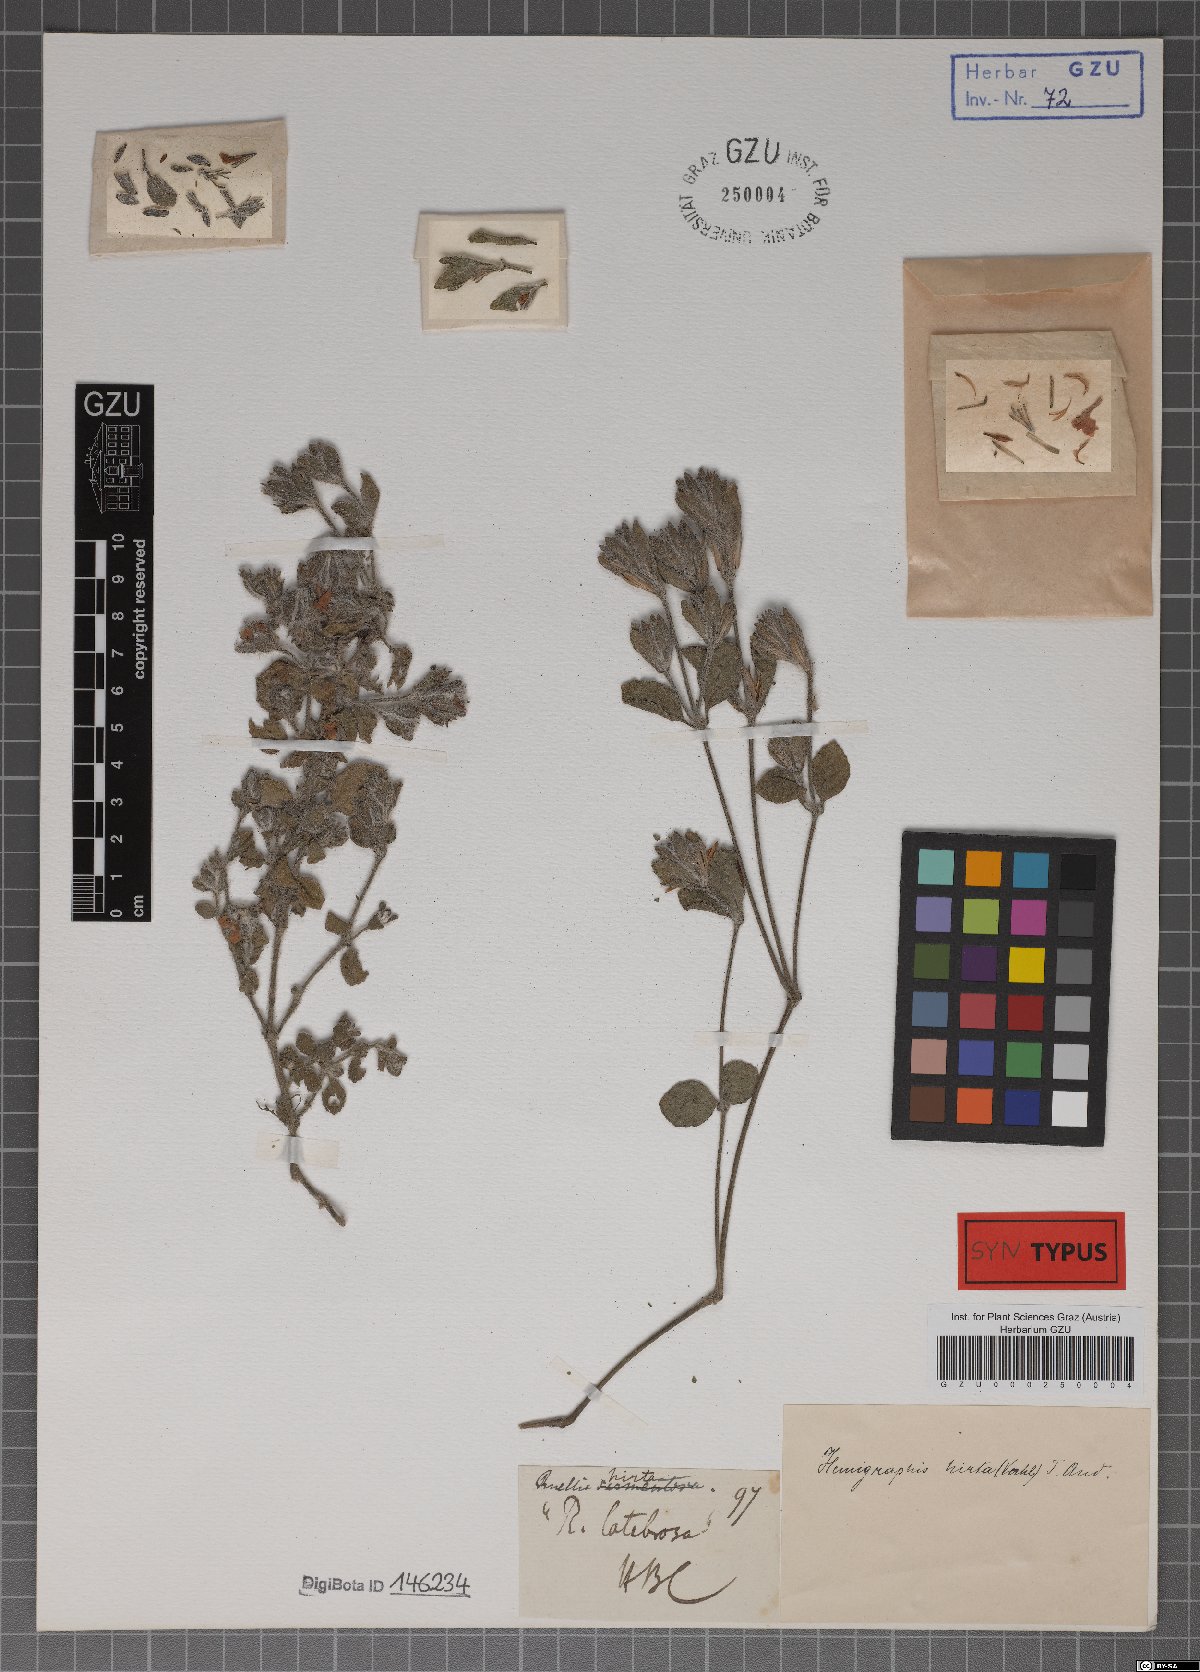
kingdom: Plantae
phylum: Tracheophyta
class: Magnoliopsida
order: Lamiales
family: Acanthaceae
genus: Strobilanthes
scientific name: Strobilanthes hirta
